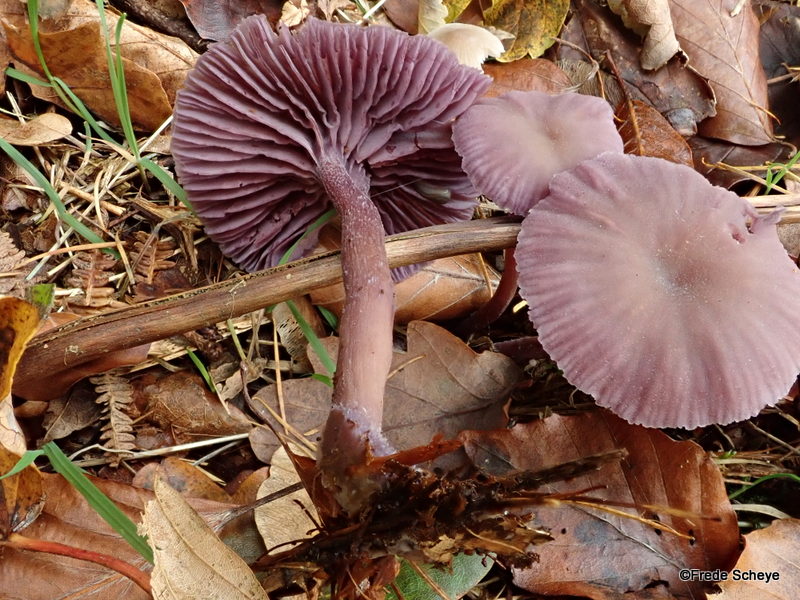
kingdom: Fungi
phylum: Basidiomycota
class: Agaricomycetes
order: Agaricales
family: Hydnangiaceae
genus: Laccaria
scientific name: Laccaria amethystina
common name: violet ametysthat
